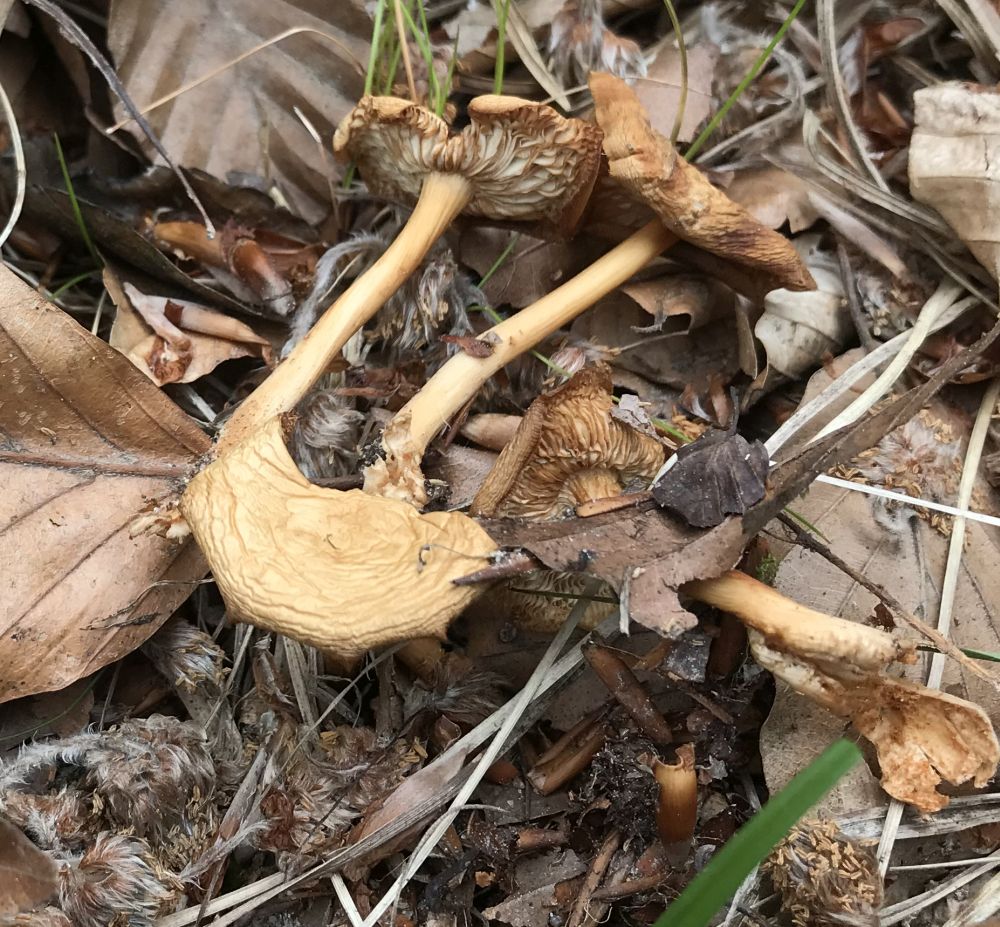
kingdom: Fungi
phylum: Basidiomycota
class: Agaricomycetes
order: Agaricales
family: Omphalotaceae
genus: Gymnopus
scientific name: Gymnopus dryophilus
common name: løv-fladhat
